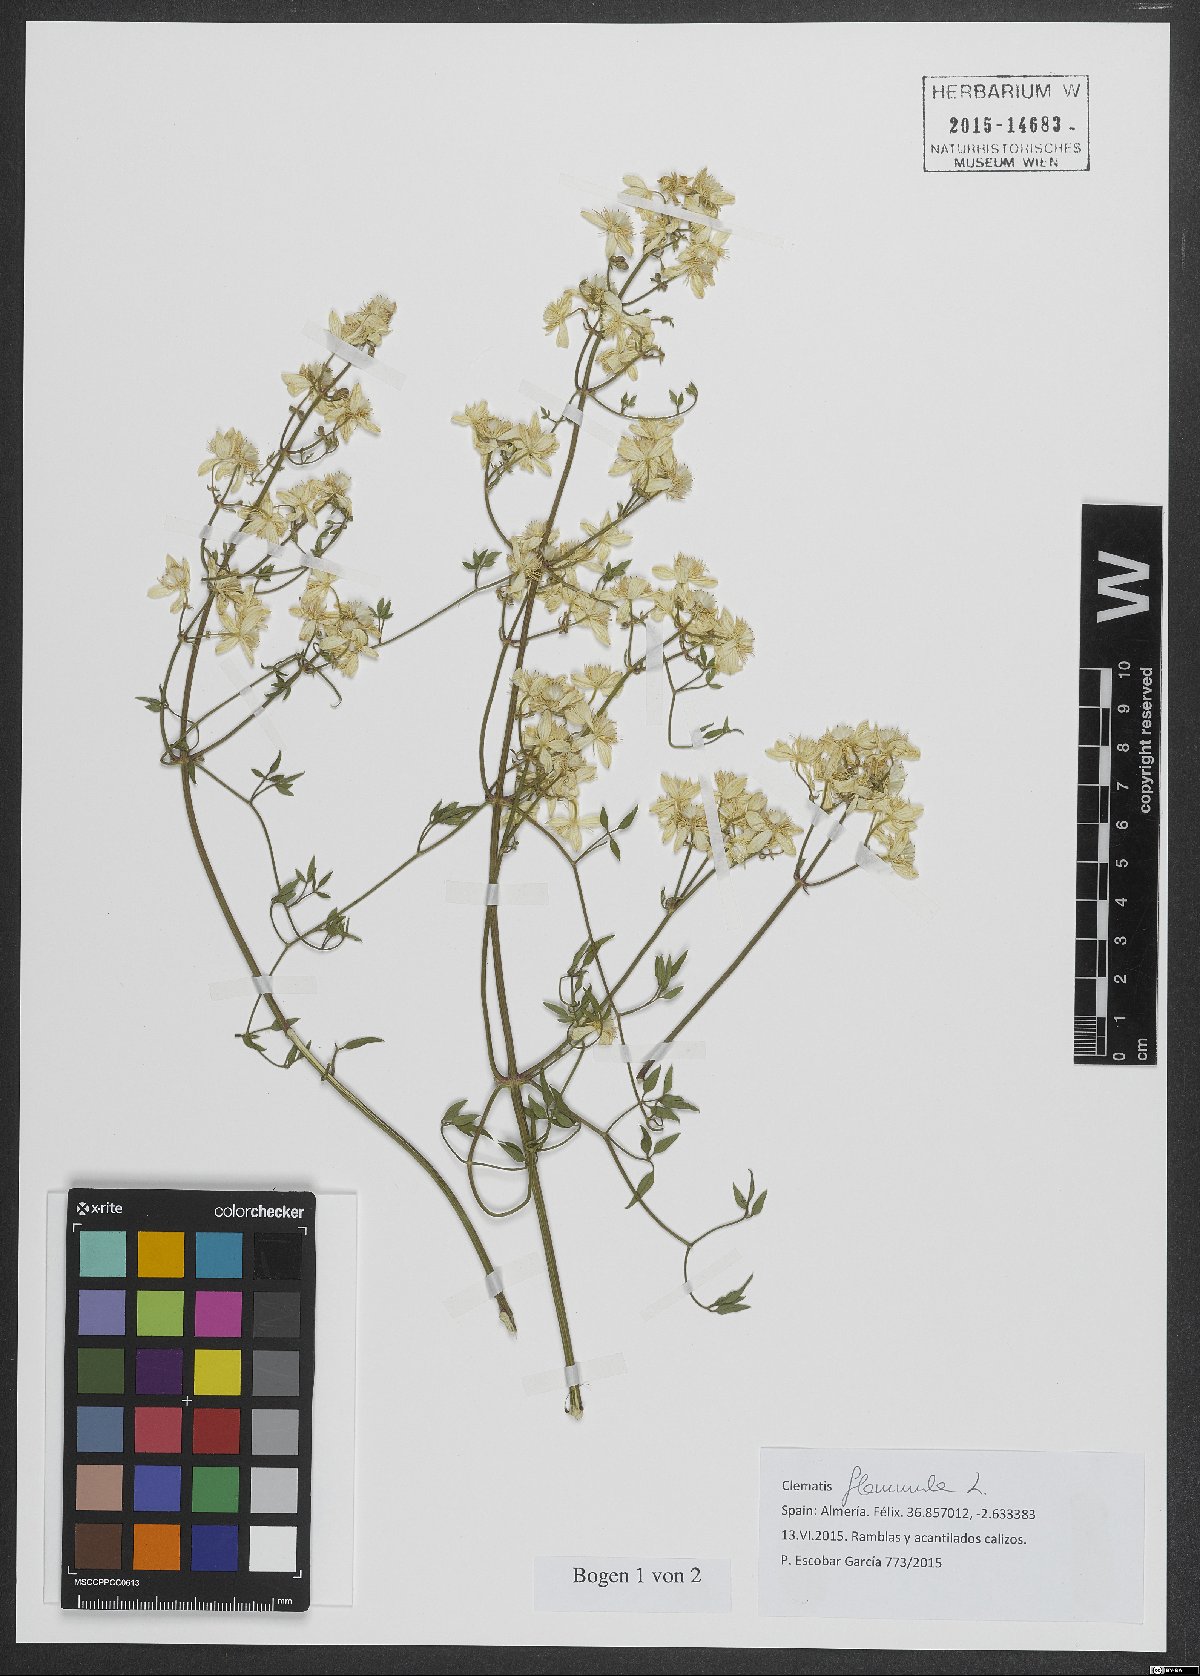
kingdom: Plantae
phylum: Tracheophyta
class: Magnoliopsida
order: Ranunculales
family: Ranunculaceae
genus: Clematis
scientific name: Clematis flammula
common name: Virgin's-bower
